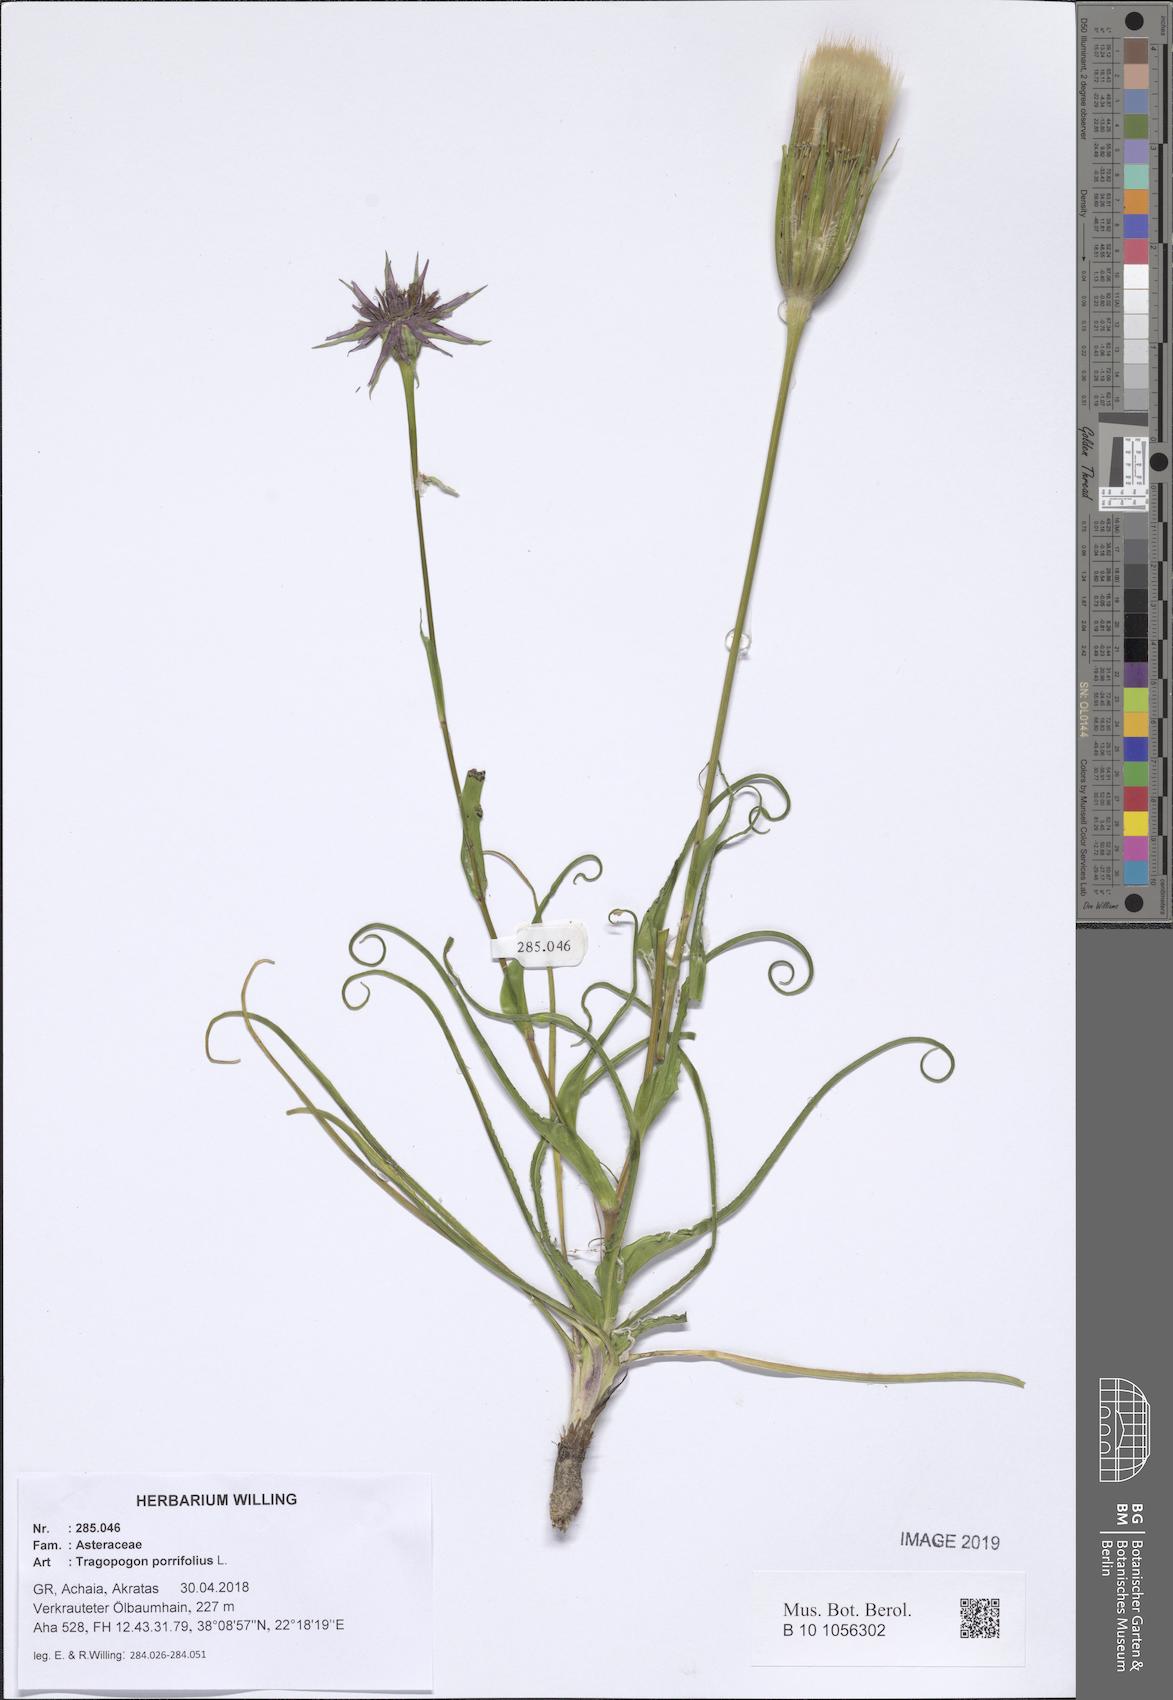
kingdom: Plantae
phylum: Tracheophyta
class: Magnoliopsida
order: Asterales
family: Asteraceae
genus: Tragopogon
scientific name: Tragopogon porrifolius
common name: Salsify
